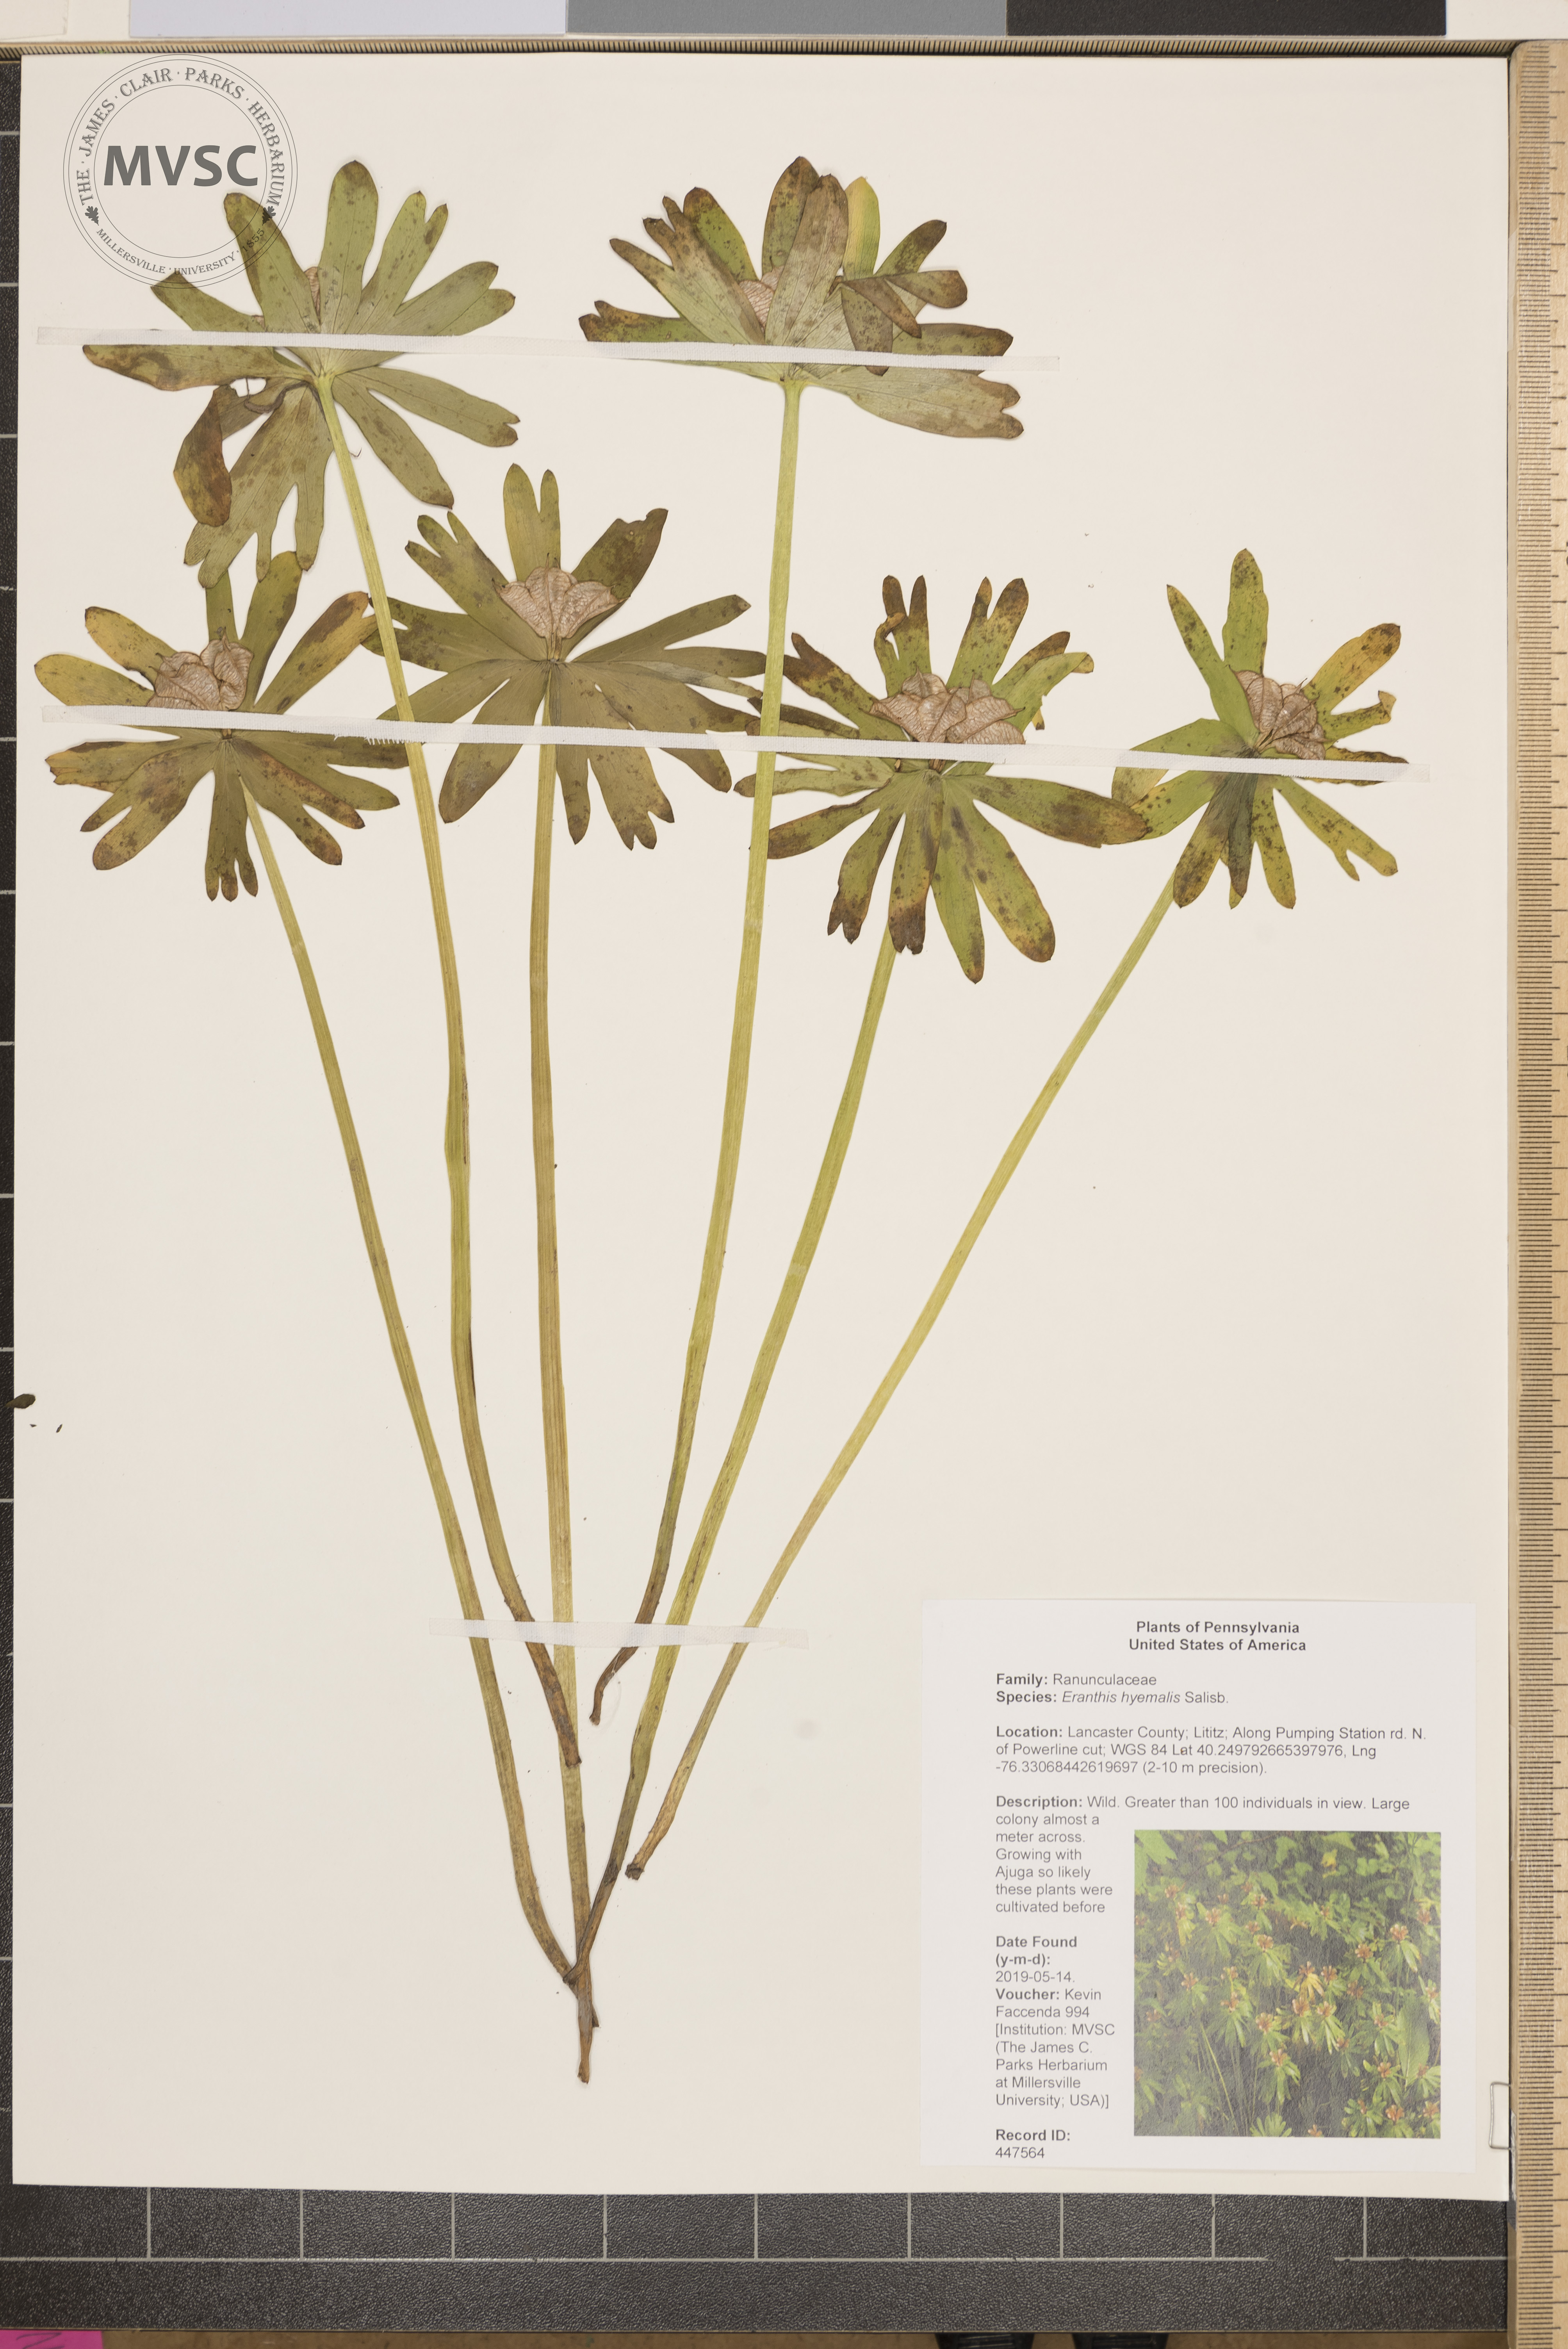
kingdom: Plantae
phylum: Tracheophyta
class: Magnoliopsida
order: Ranunculales
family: Ranunculaceae
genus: Eranthis
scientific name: Eranthis hyemalis
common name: Winter aconite
